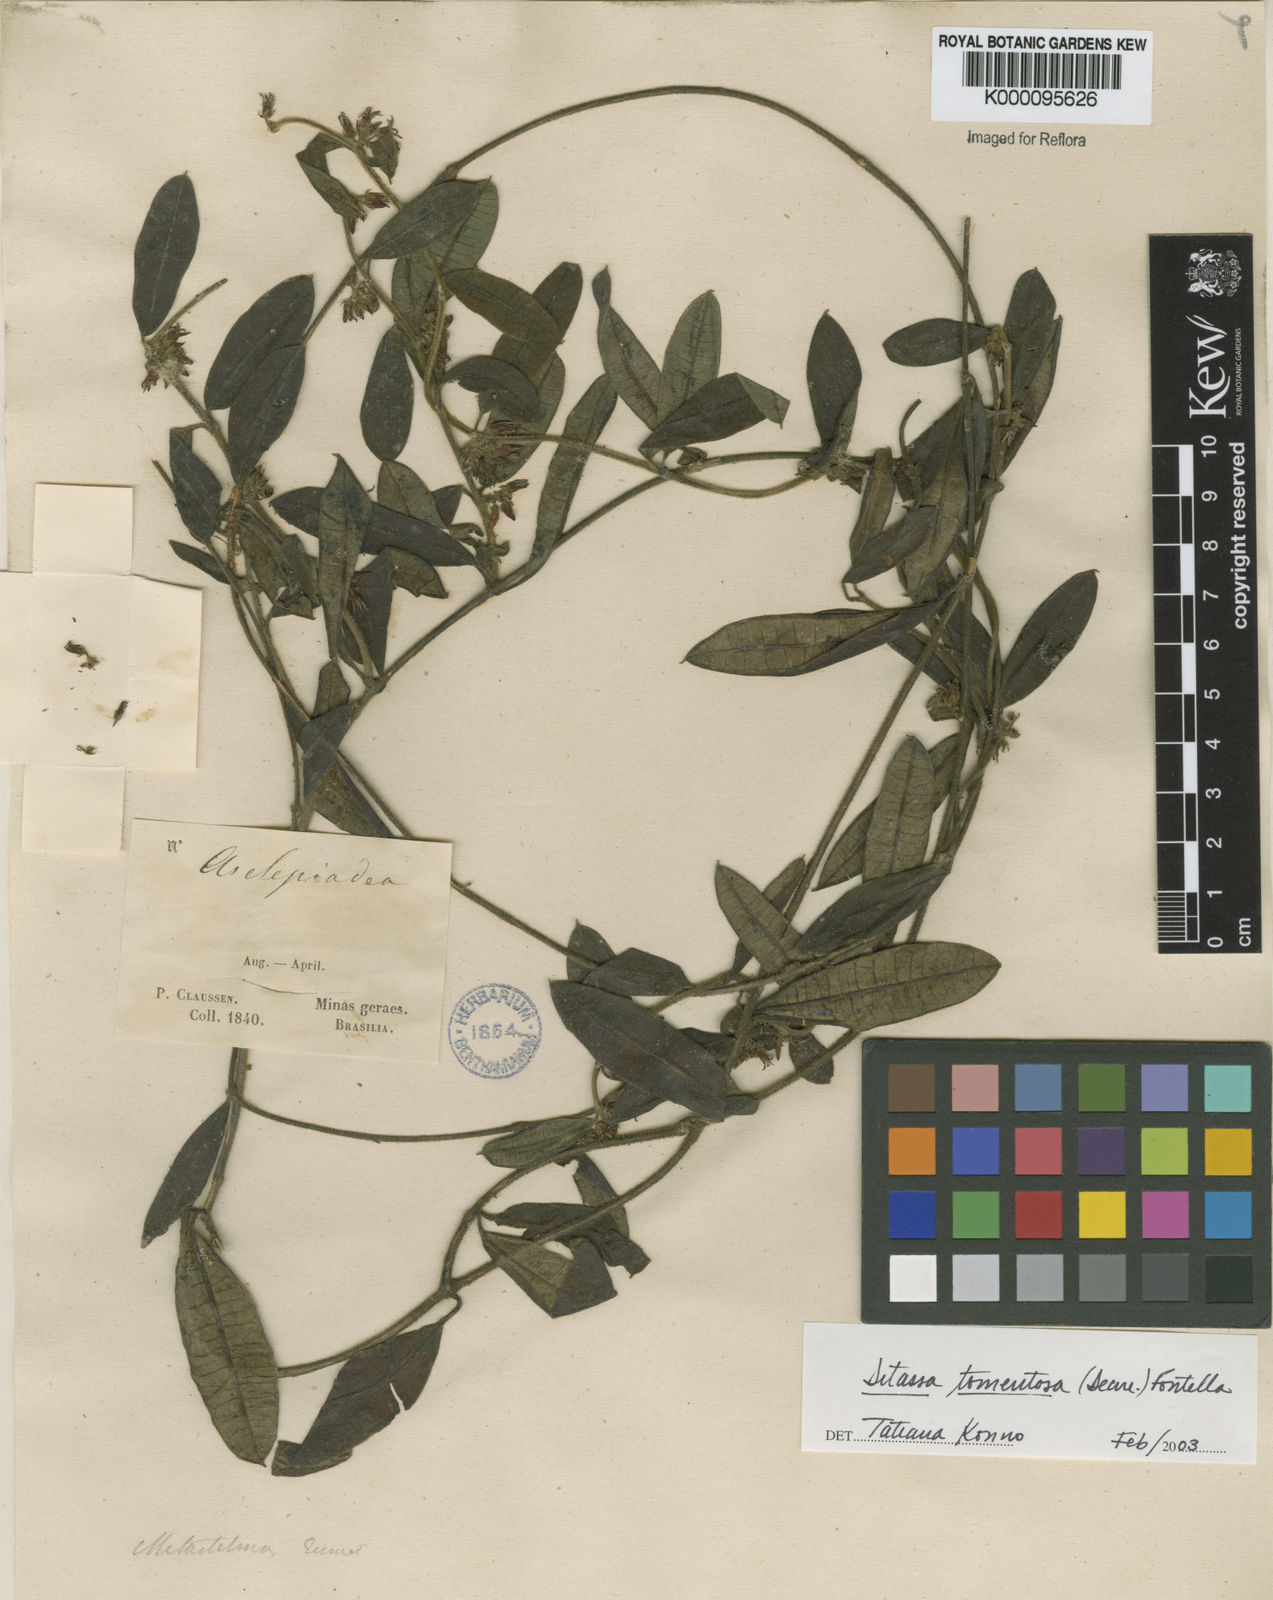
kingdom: Plantae
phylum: Tracheophyta
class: Magnoliopsida
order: Gentianales
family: Apocynaceae
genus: Ditassa
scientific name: Ditassa tomentosa
